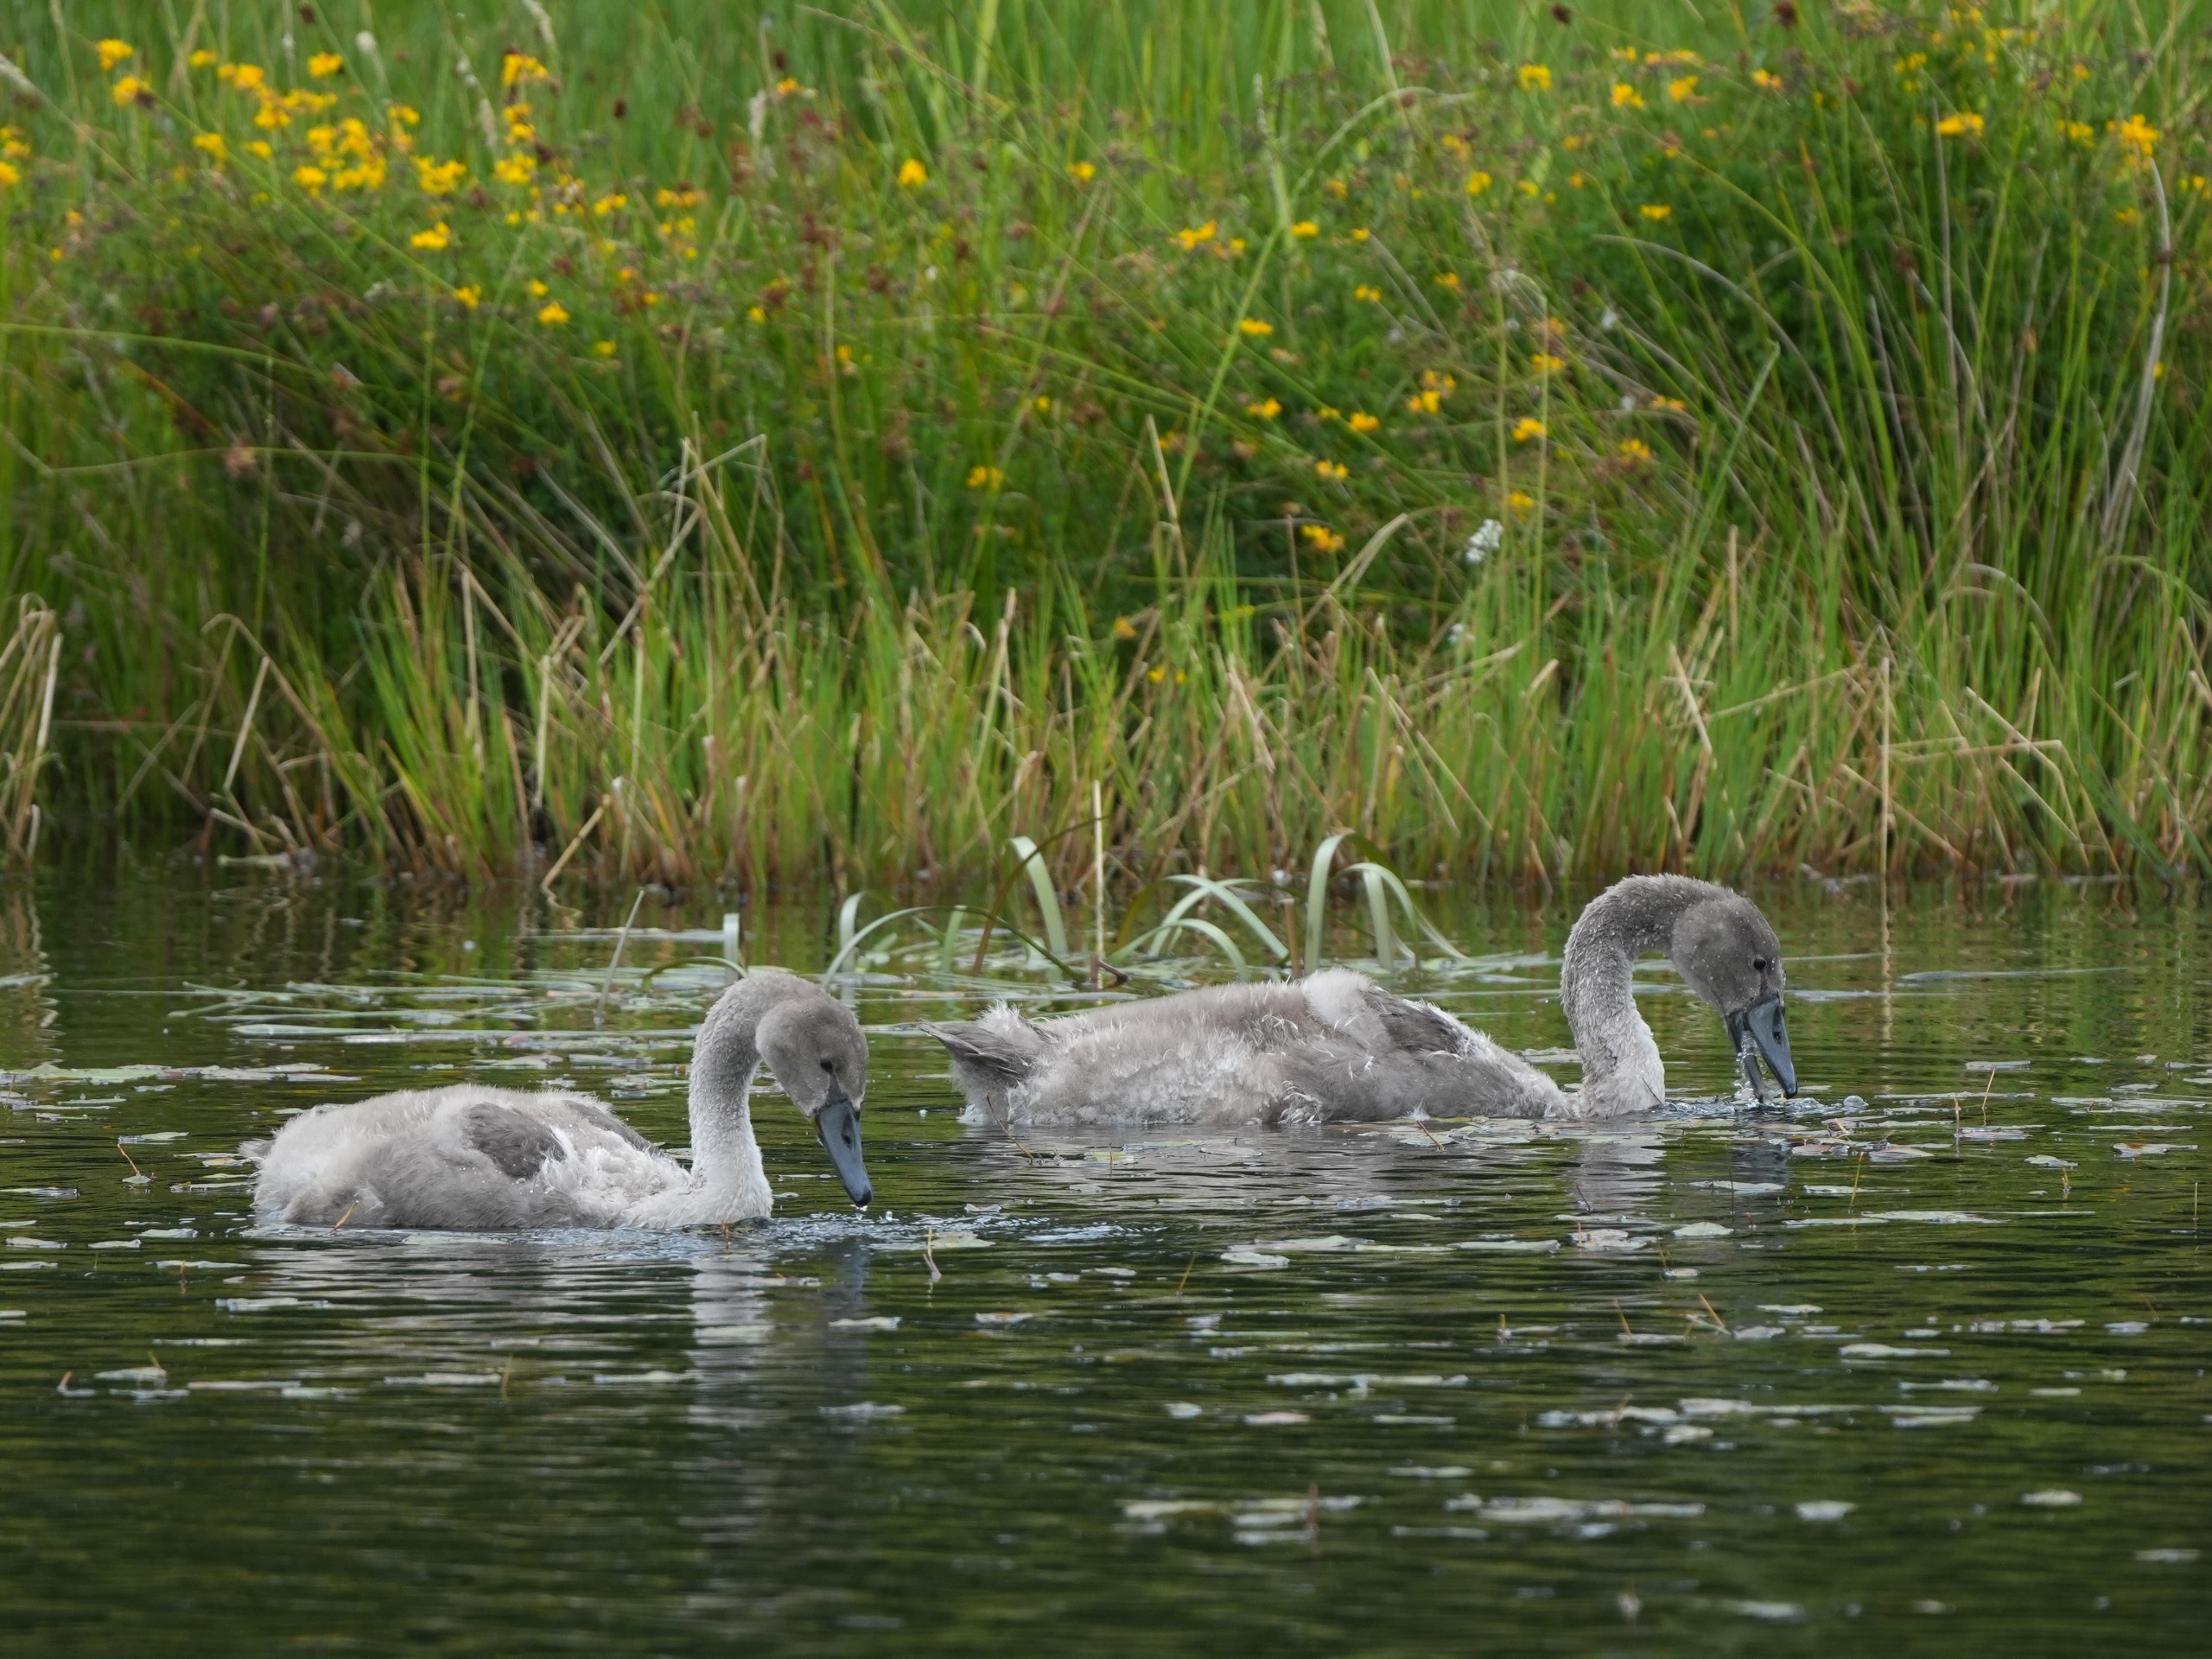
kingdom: Animalia
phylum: Chordata
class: Aves
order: Anseriformes
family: Anatidae
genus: Cygnus
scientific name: Cygnus olor
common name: Knopsvane
